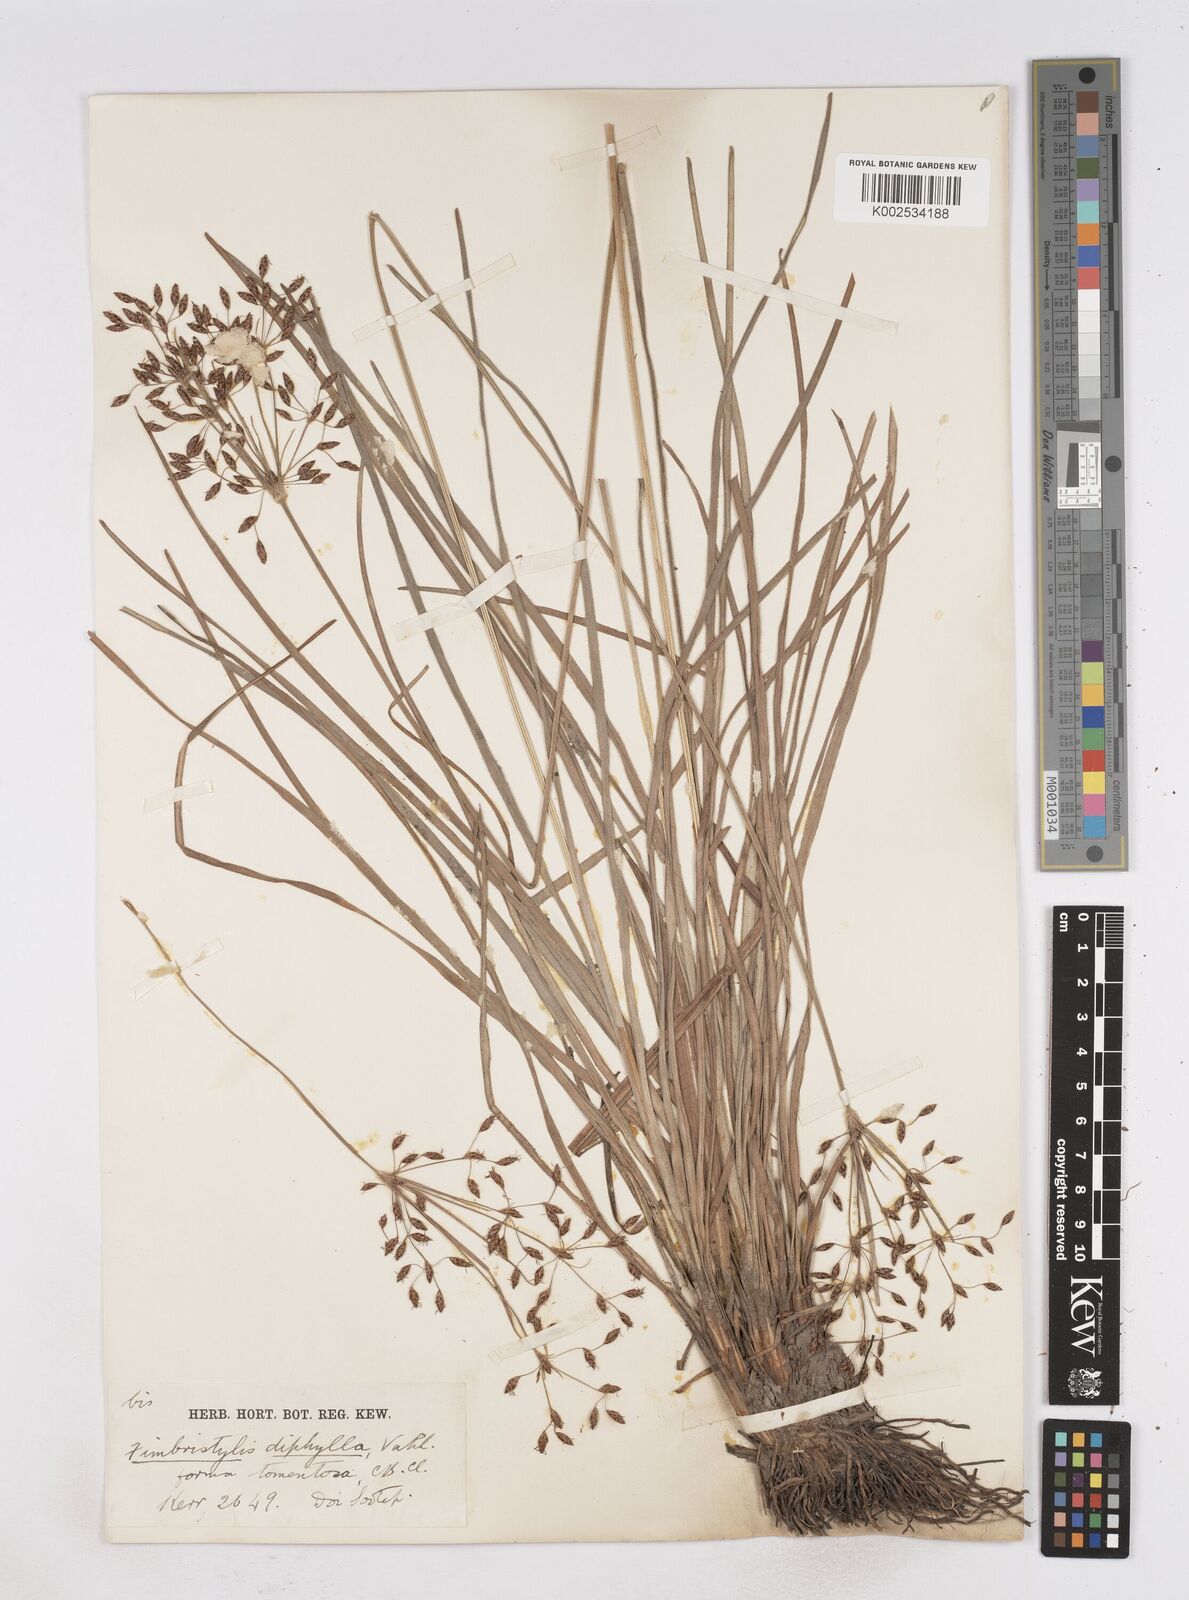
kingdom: Plantae
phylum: Tracheophyta
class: Liliopsida
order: Poales
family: Cyperaceae
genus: Fimbristylis
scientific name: Fimbristylis dichotoma
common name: Forked fimbry
